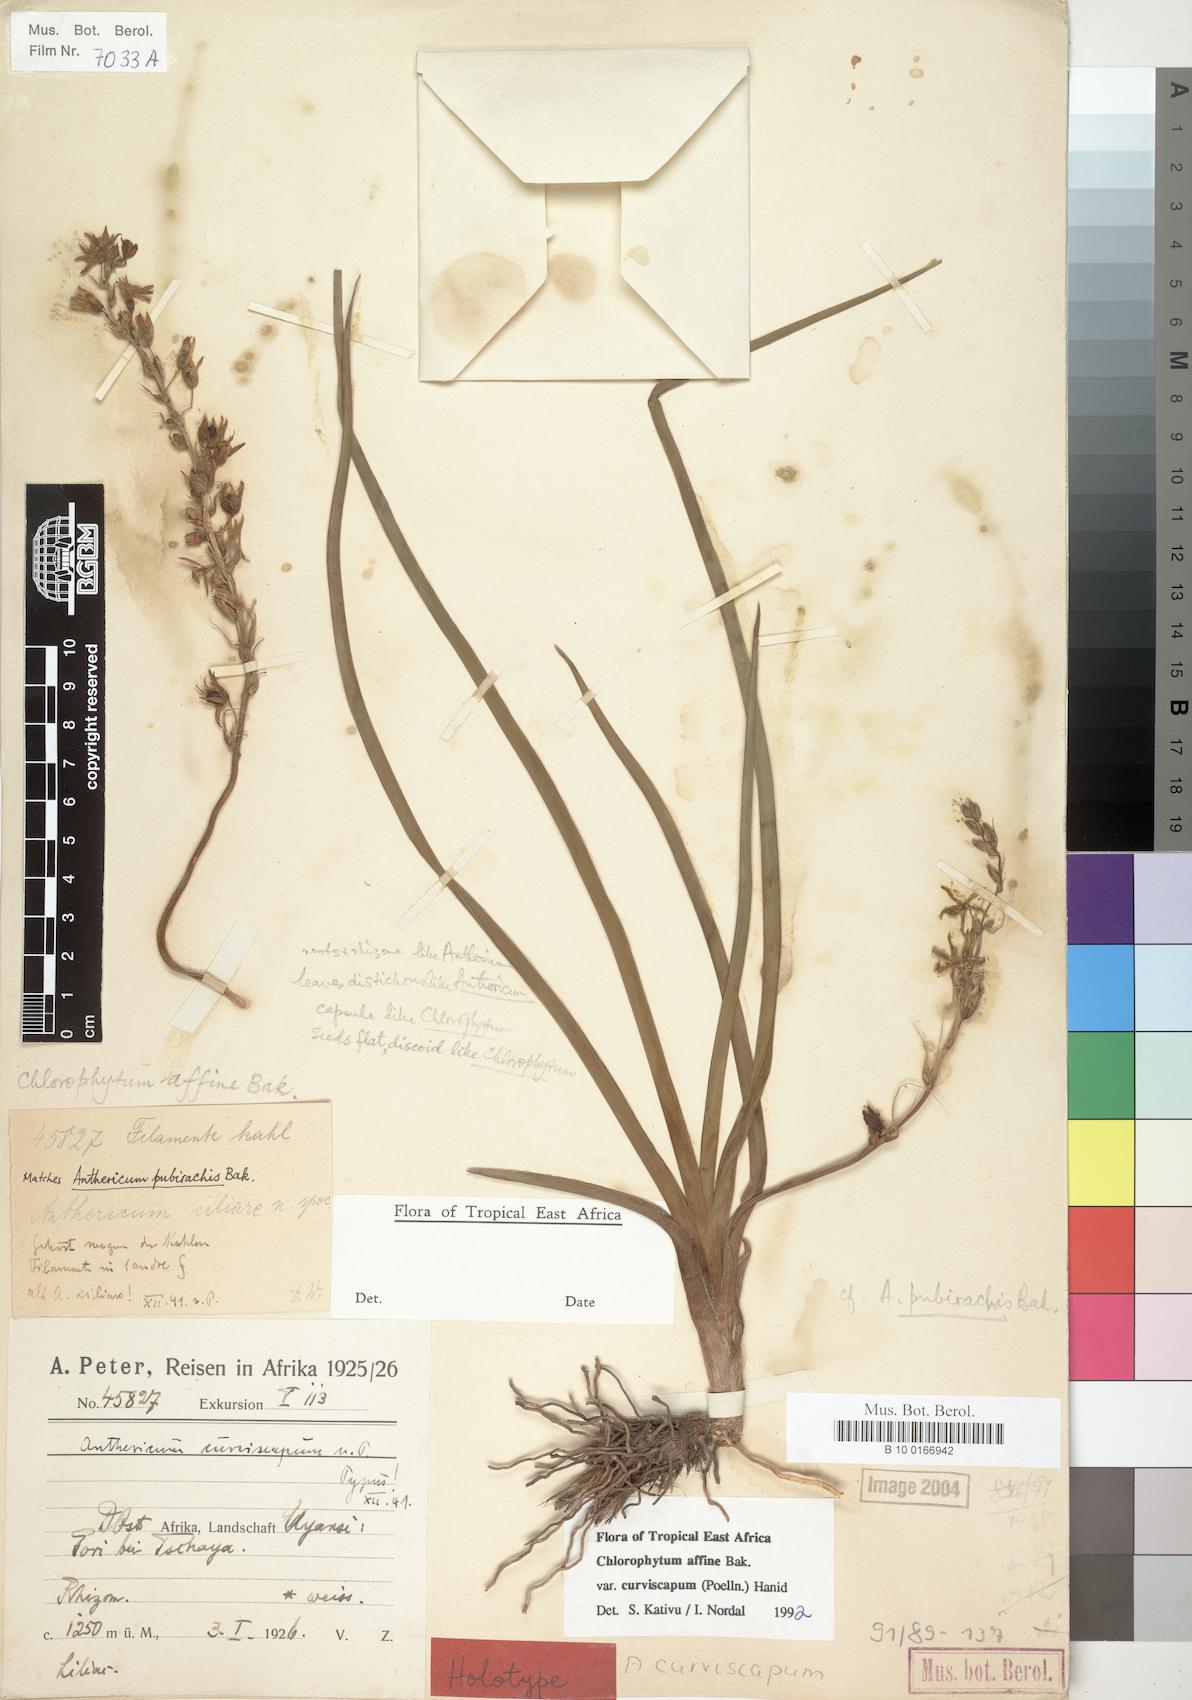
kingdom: Plantae
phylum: Tracheophyta
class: Liliopsida
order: Asparagales
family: Asparagaceae
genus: Chlorophytum
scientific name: Chlorophytum tordense
